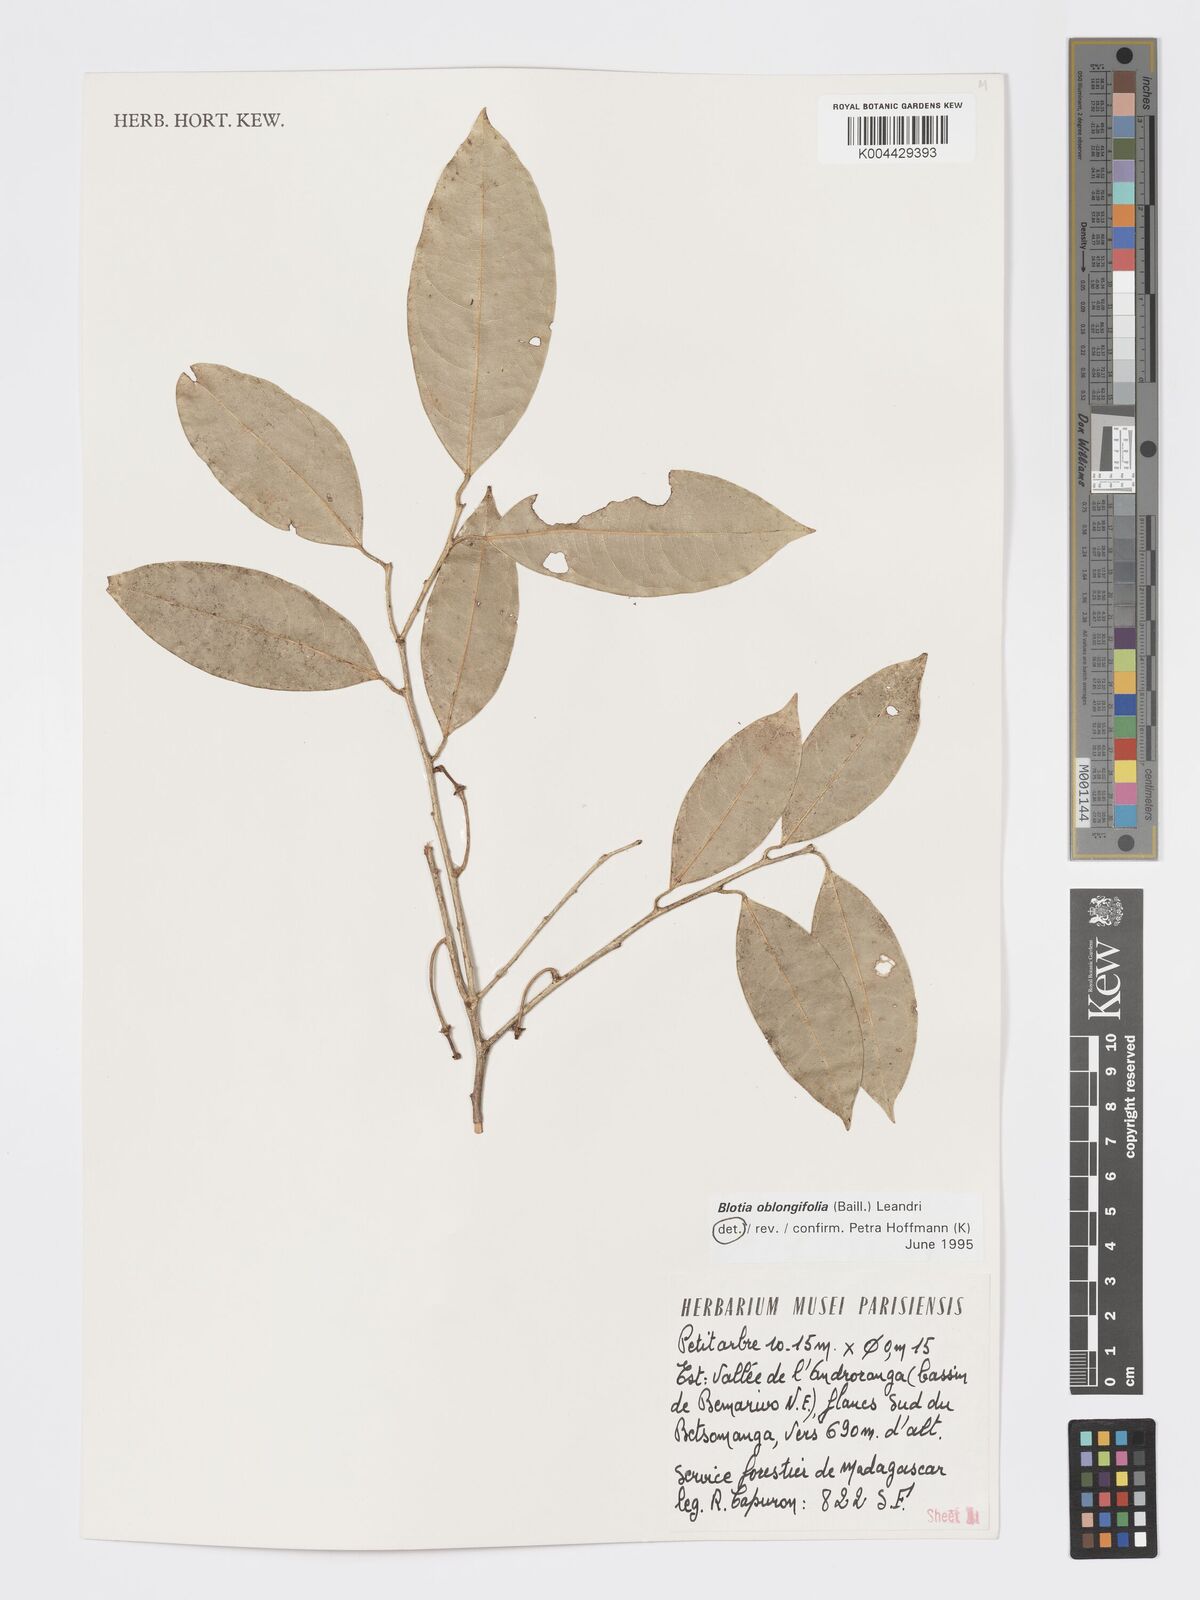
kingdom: Plantae
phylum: Tracheophyta
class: Magnoliopsida
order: Malpighiales
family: Phyllanthaceae
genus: Wielandia
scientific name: Wielandia oblongifolia
